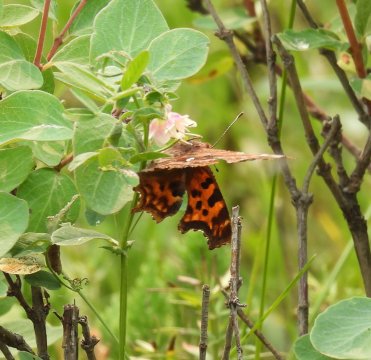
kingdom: Animalia
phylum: Arthropoda
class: Insecta
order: Lepidoptera
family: Nymphalidae
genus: Polygonia
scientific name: Polygonia satyrus
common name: Satyr Comma
